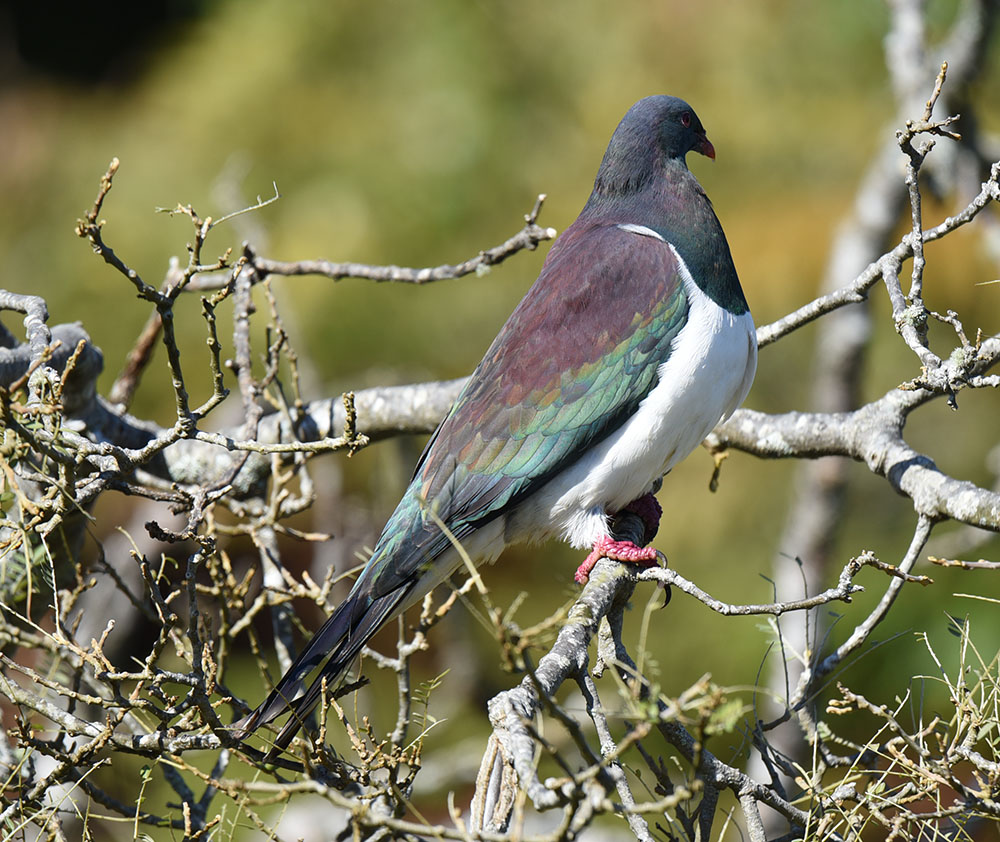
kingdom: Animalia
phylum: Chordata
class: Aves
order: Columbiformes
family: Columbidae
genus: Hemiphaga
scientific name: Hemiphaga novaeseelandiae
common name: New zealand pigeon
